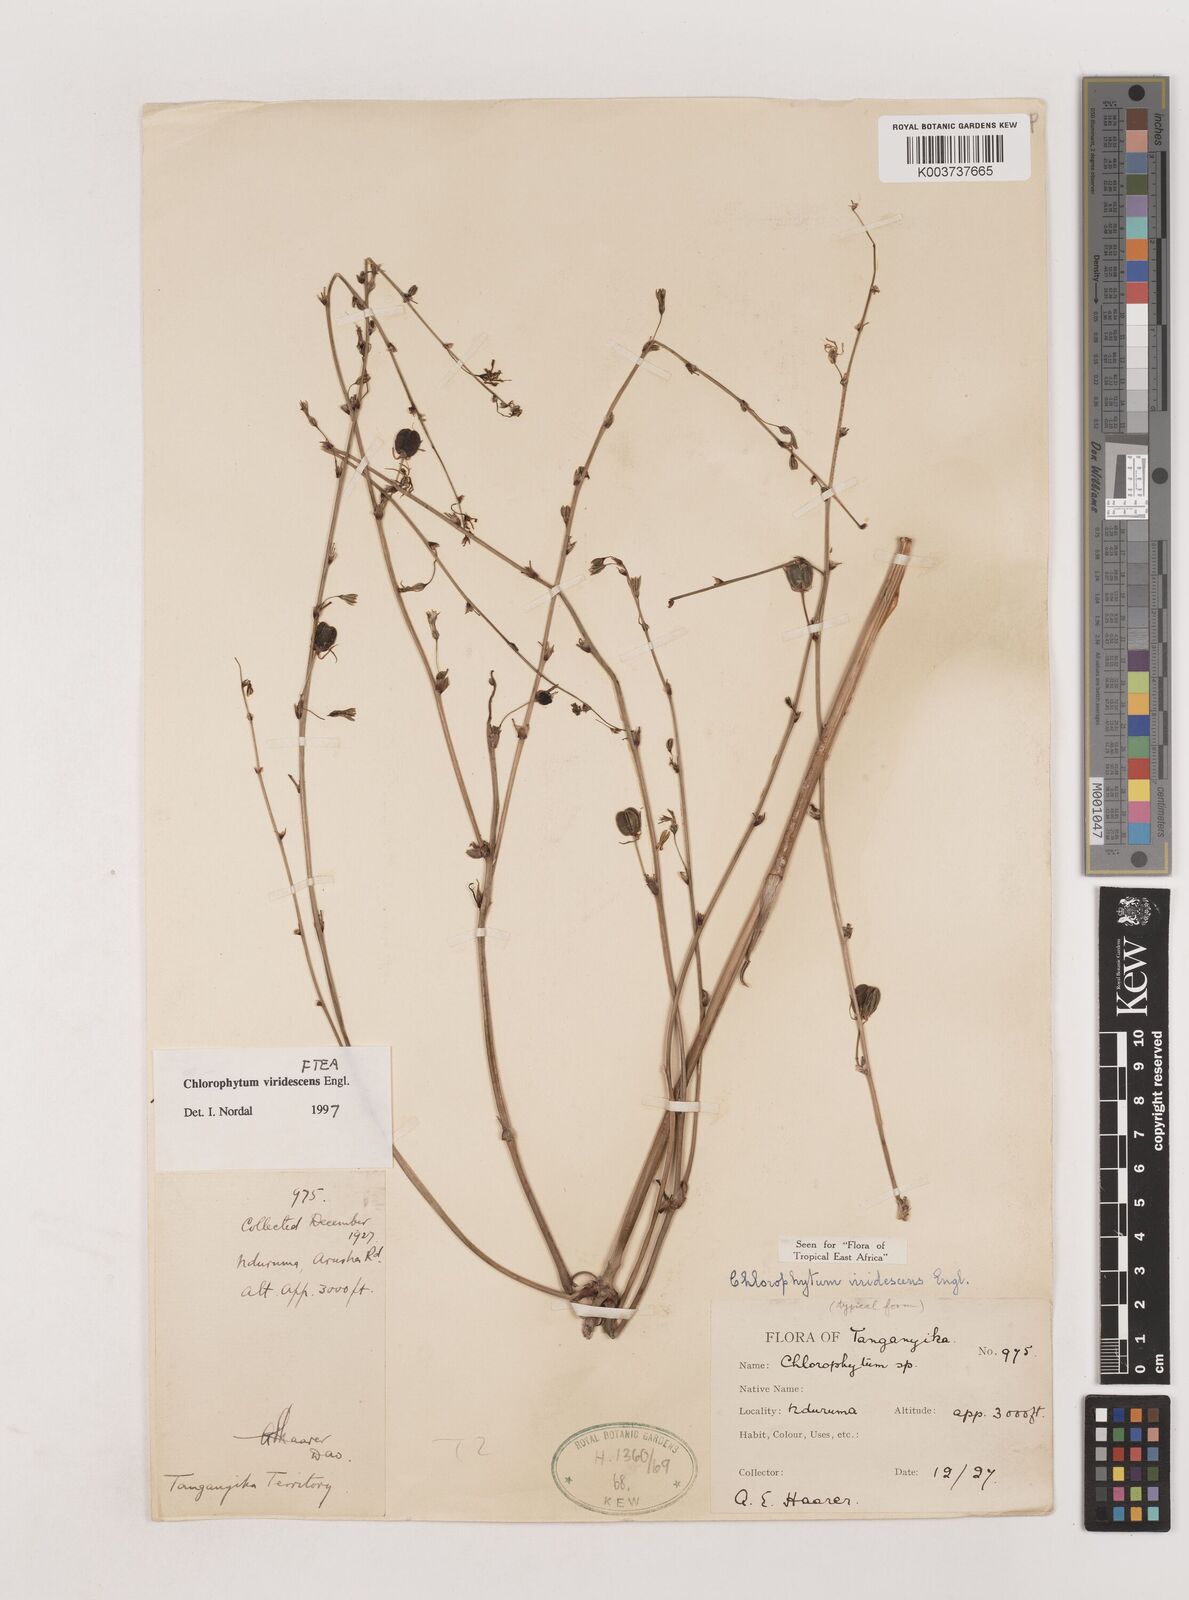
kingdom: Plantae
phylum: Tracheophyta
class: Liliopsida
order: Asparagales
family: Asparagaceae
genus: Chlorophytum
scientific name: Chlorophytum viridescens
